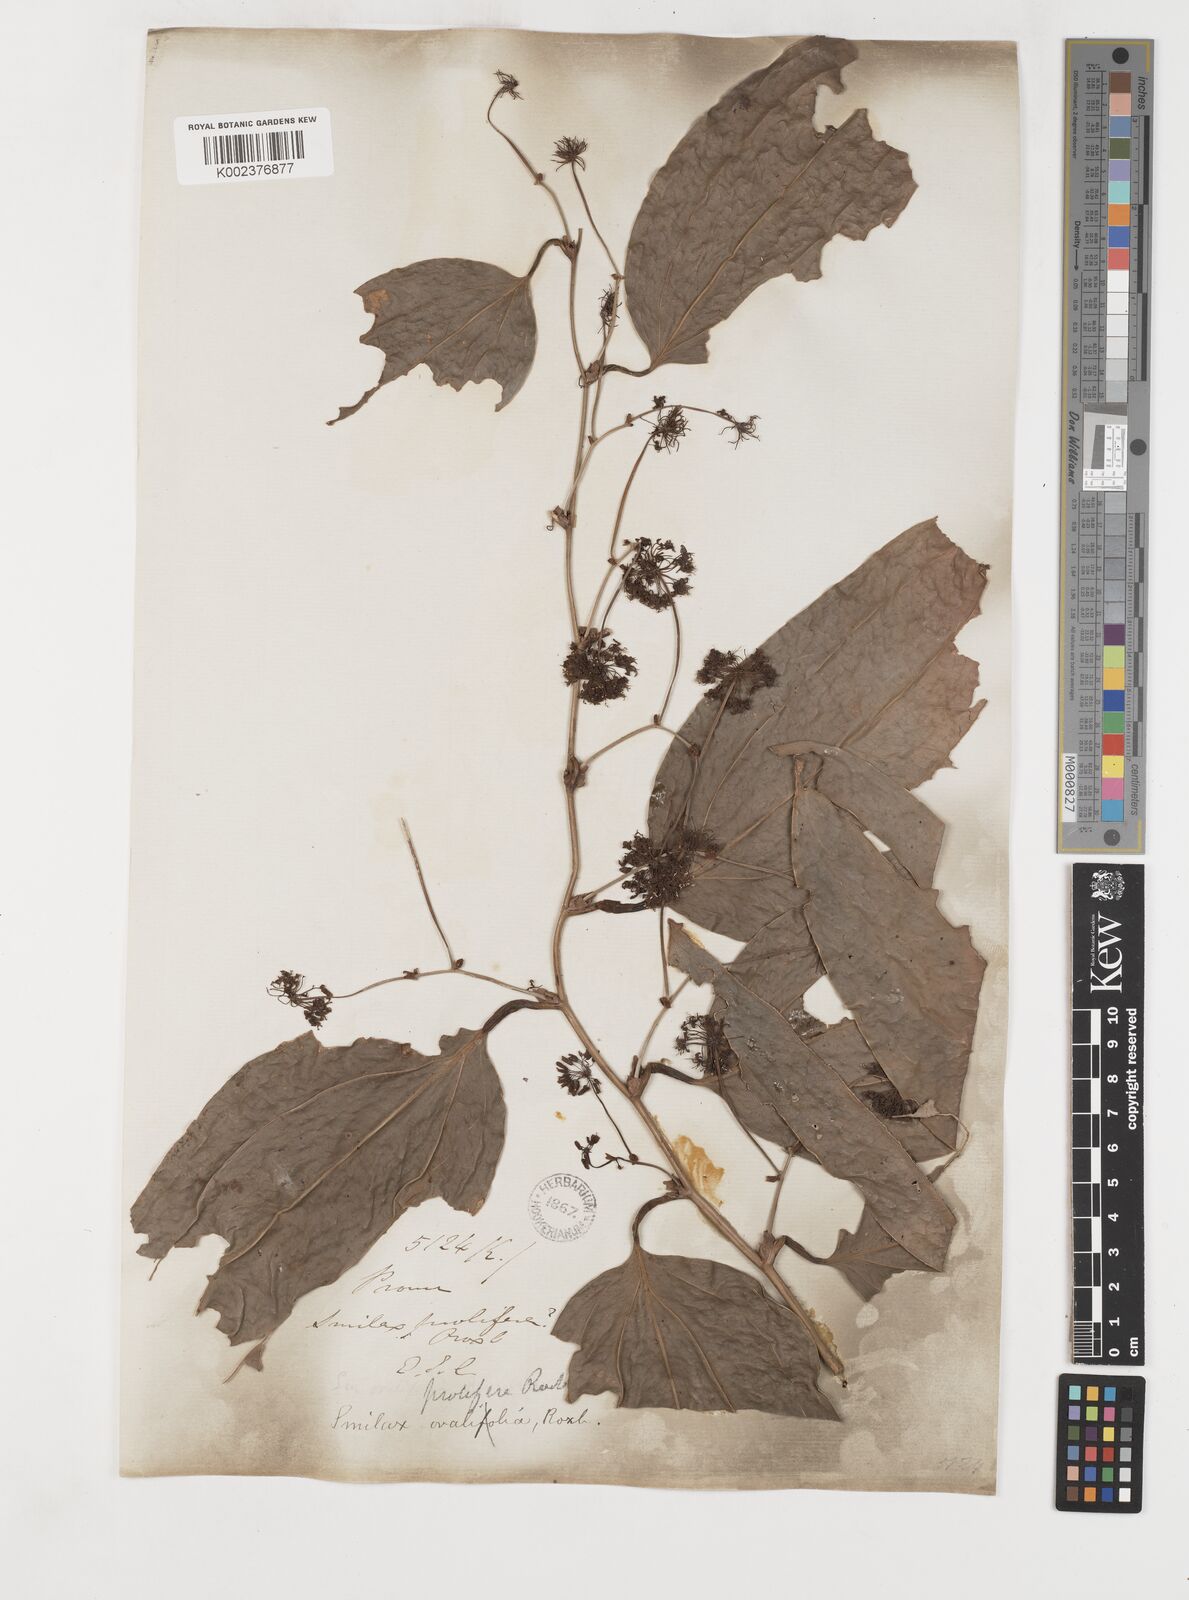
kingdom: Plantae
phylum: Tracheophyta
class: Liliopsida
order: Liliales
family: Smilacaceae
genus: Smilax
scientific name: Smilax prolifera
